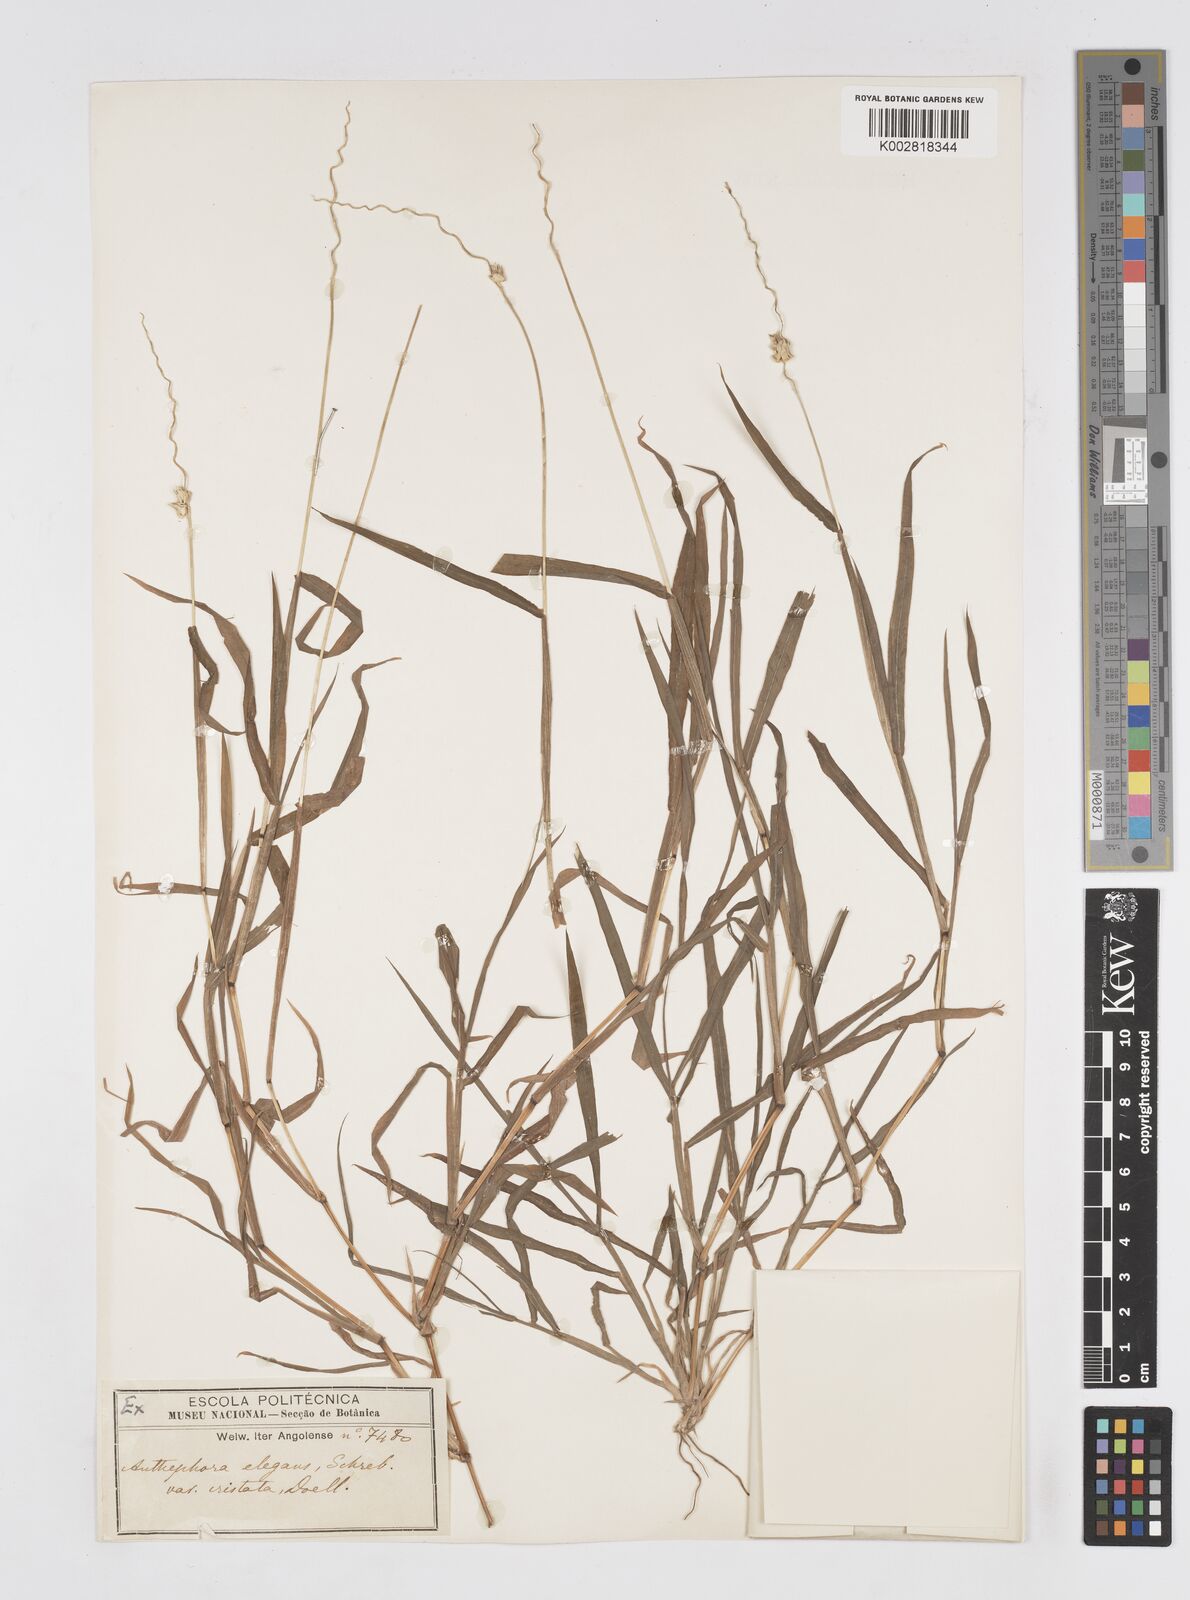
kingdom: Plantae
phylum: Tracheophyta
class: Liliopsida
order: Poales
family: Poaceae
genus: Anthephora
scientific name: Anthephora cristata
